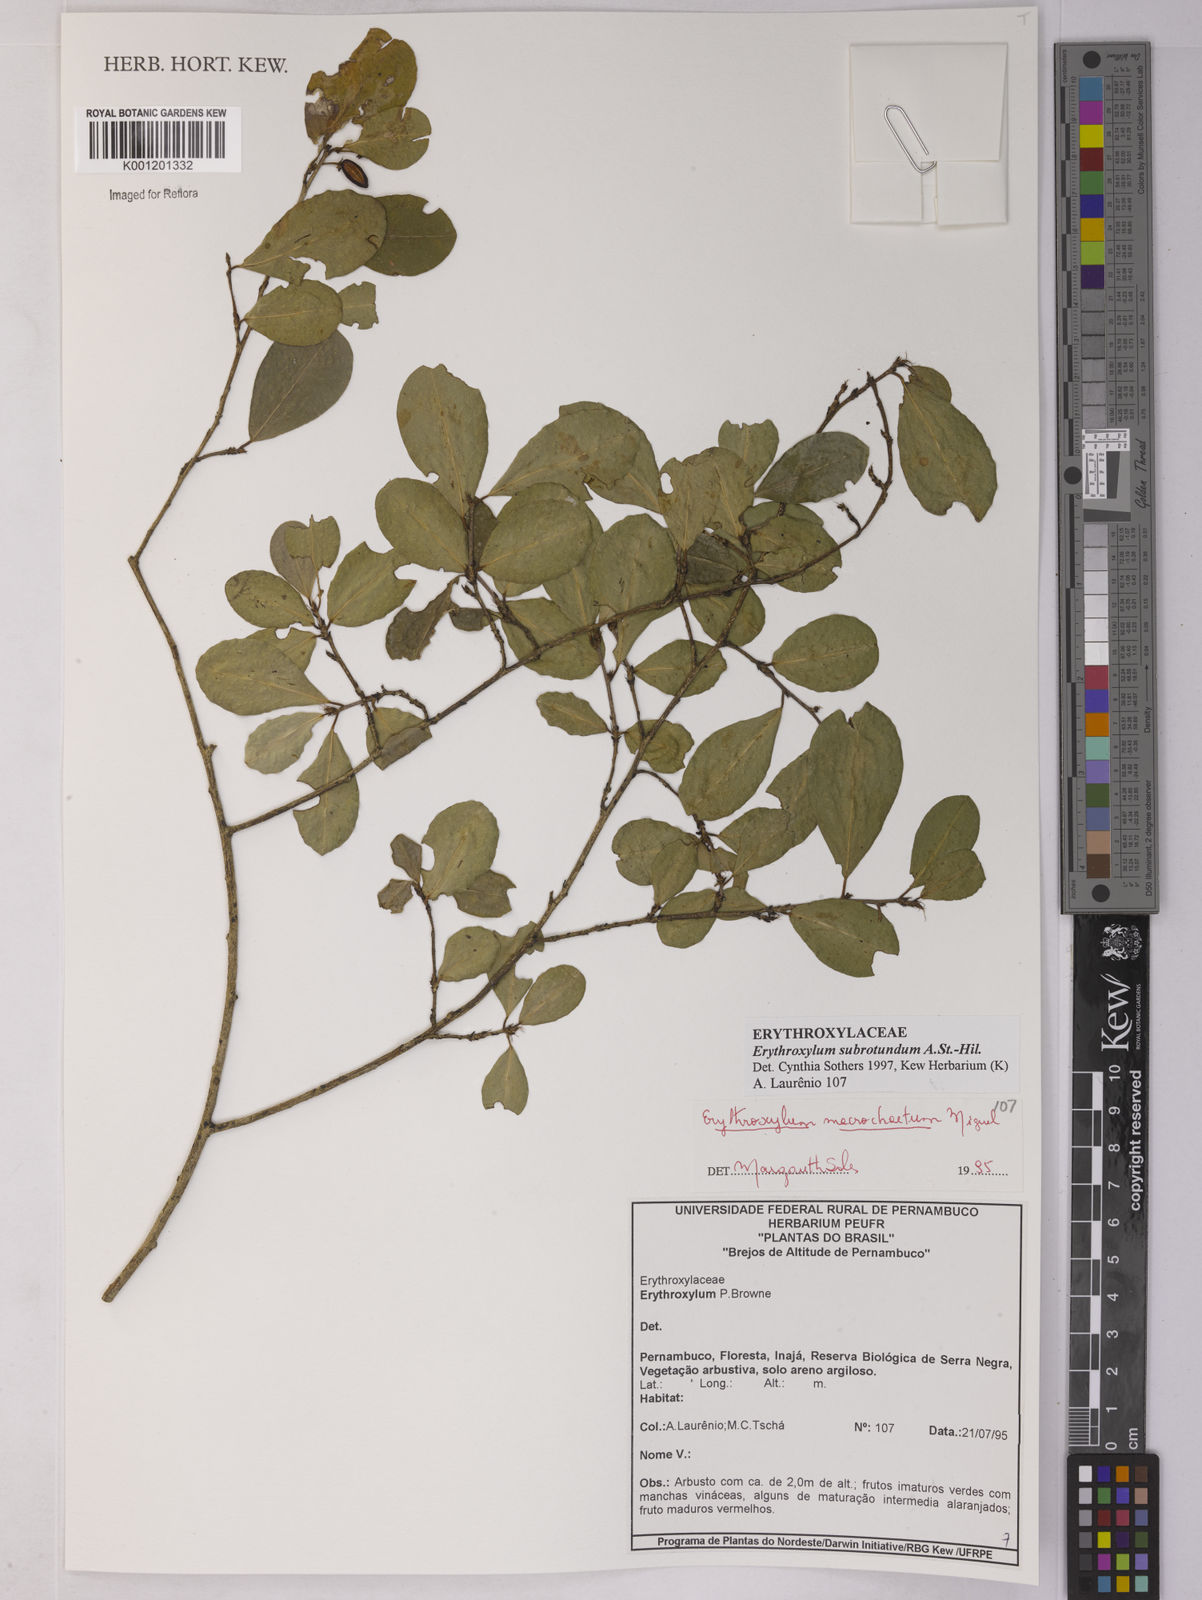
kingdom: Plantae
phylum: Tracheophyta
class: Magnoliopsida
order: Malpighiales
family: Erythroxylaceae
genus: Erythroxylum
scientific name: Erythroxylum subrotundum
